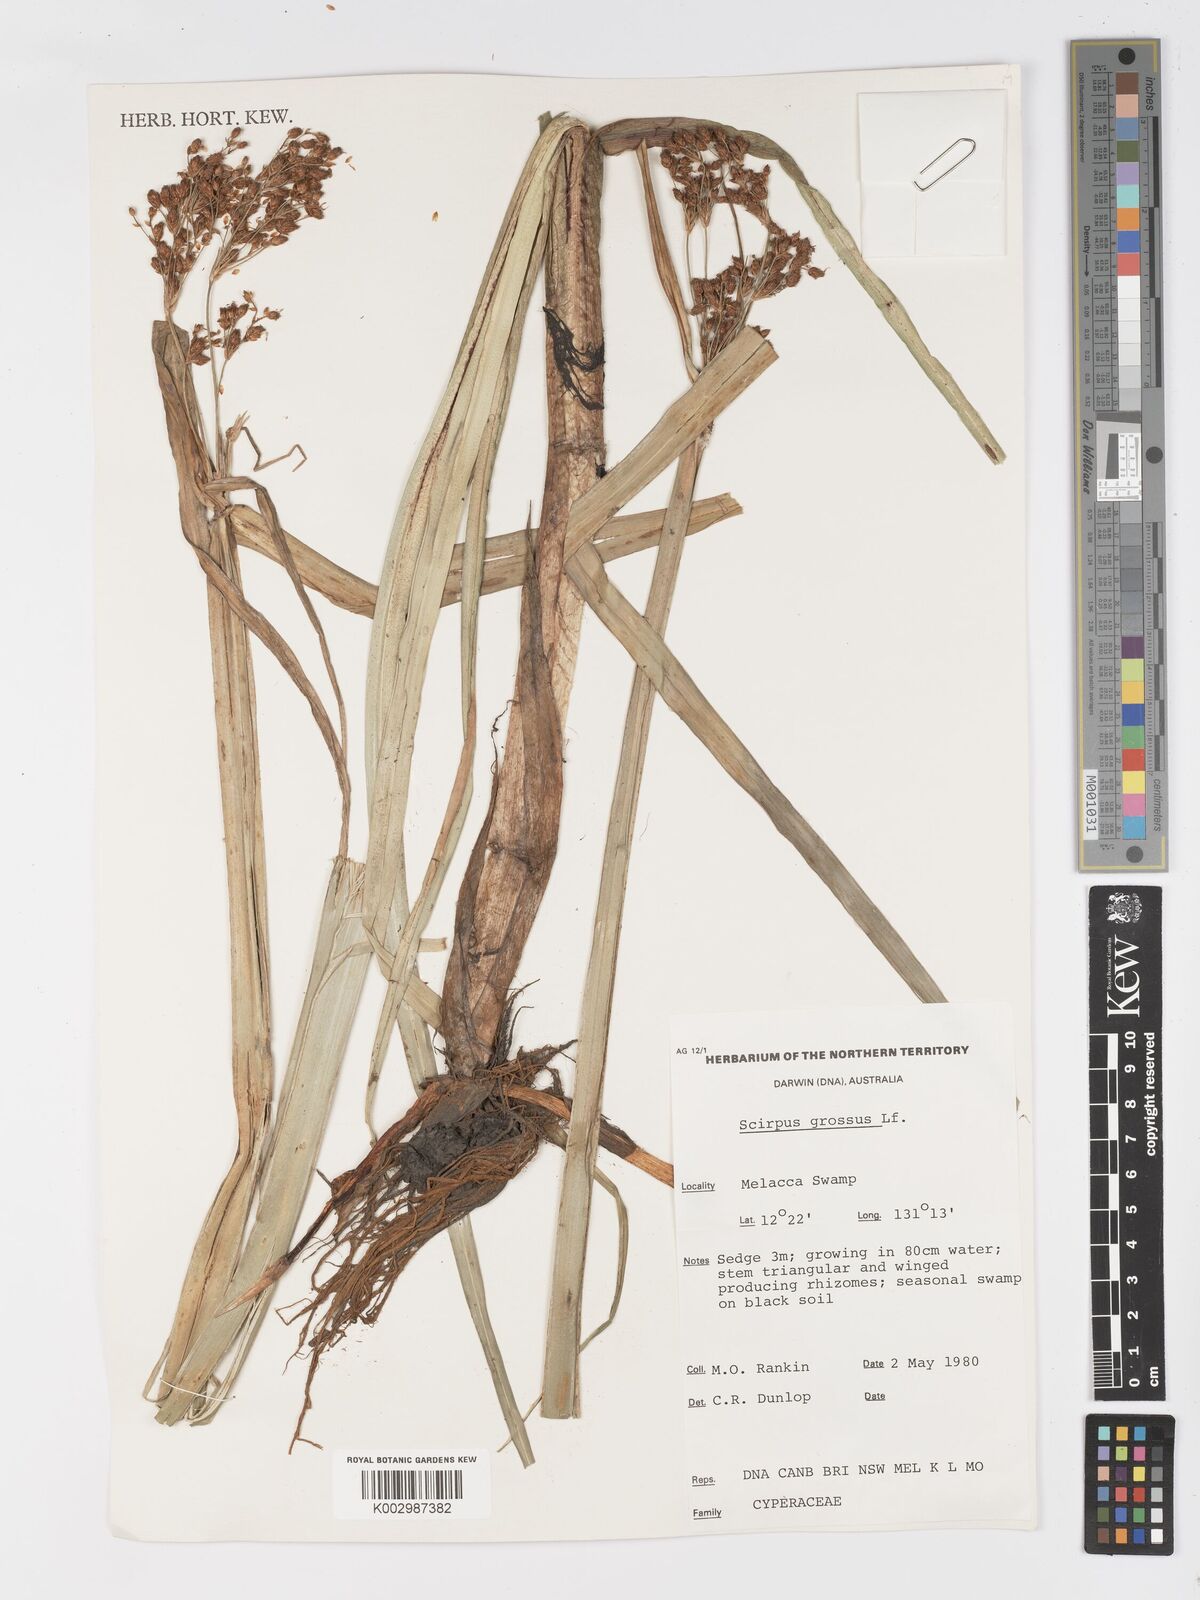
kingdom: Plantae
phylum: Tracheophyta
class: Liliopsida
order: Poales
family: Cyperaceae
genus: Actinoscirpus
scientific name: Actinoscirpus grossus
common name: Giant bur rush
